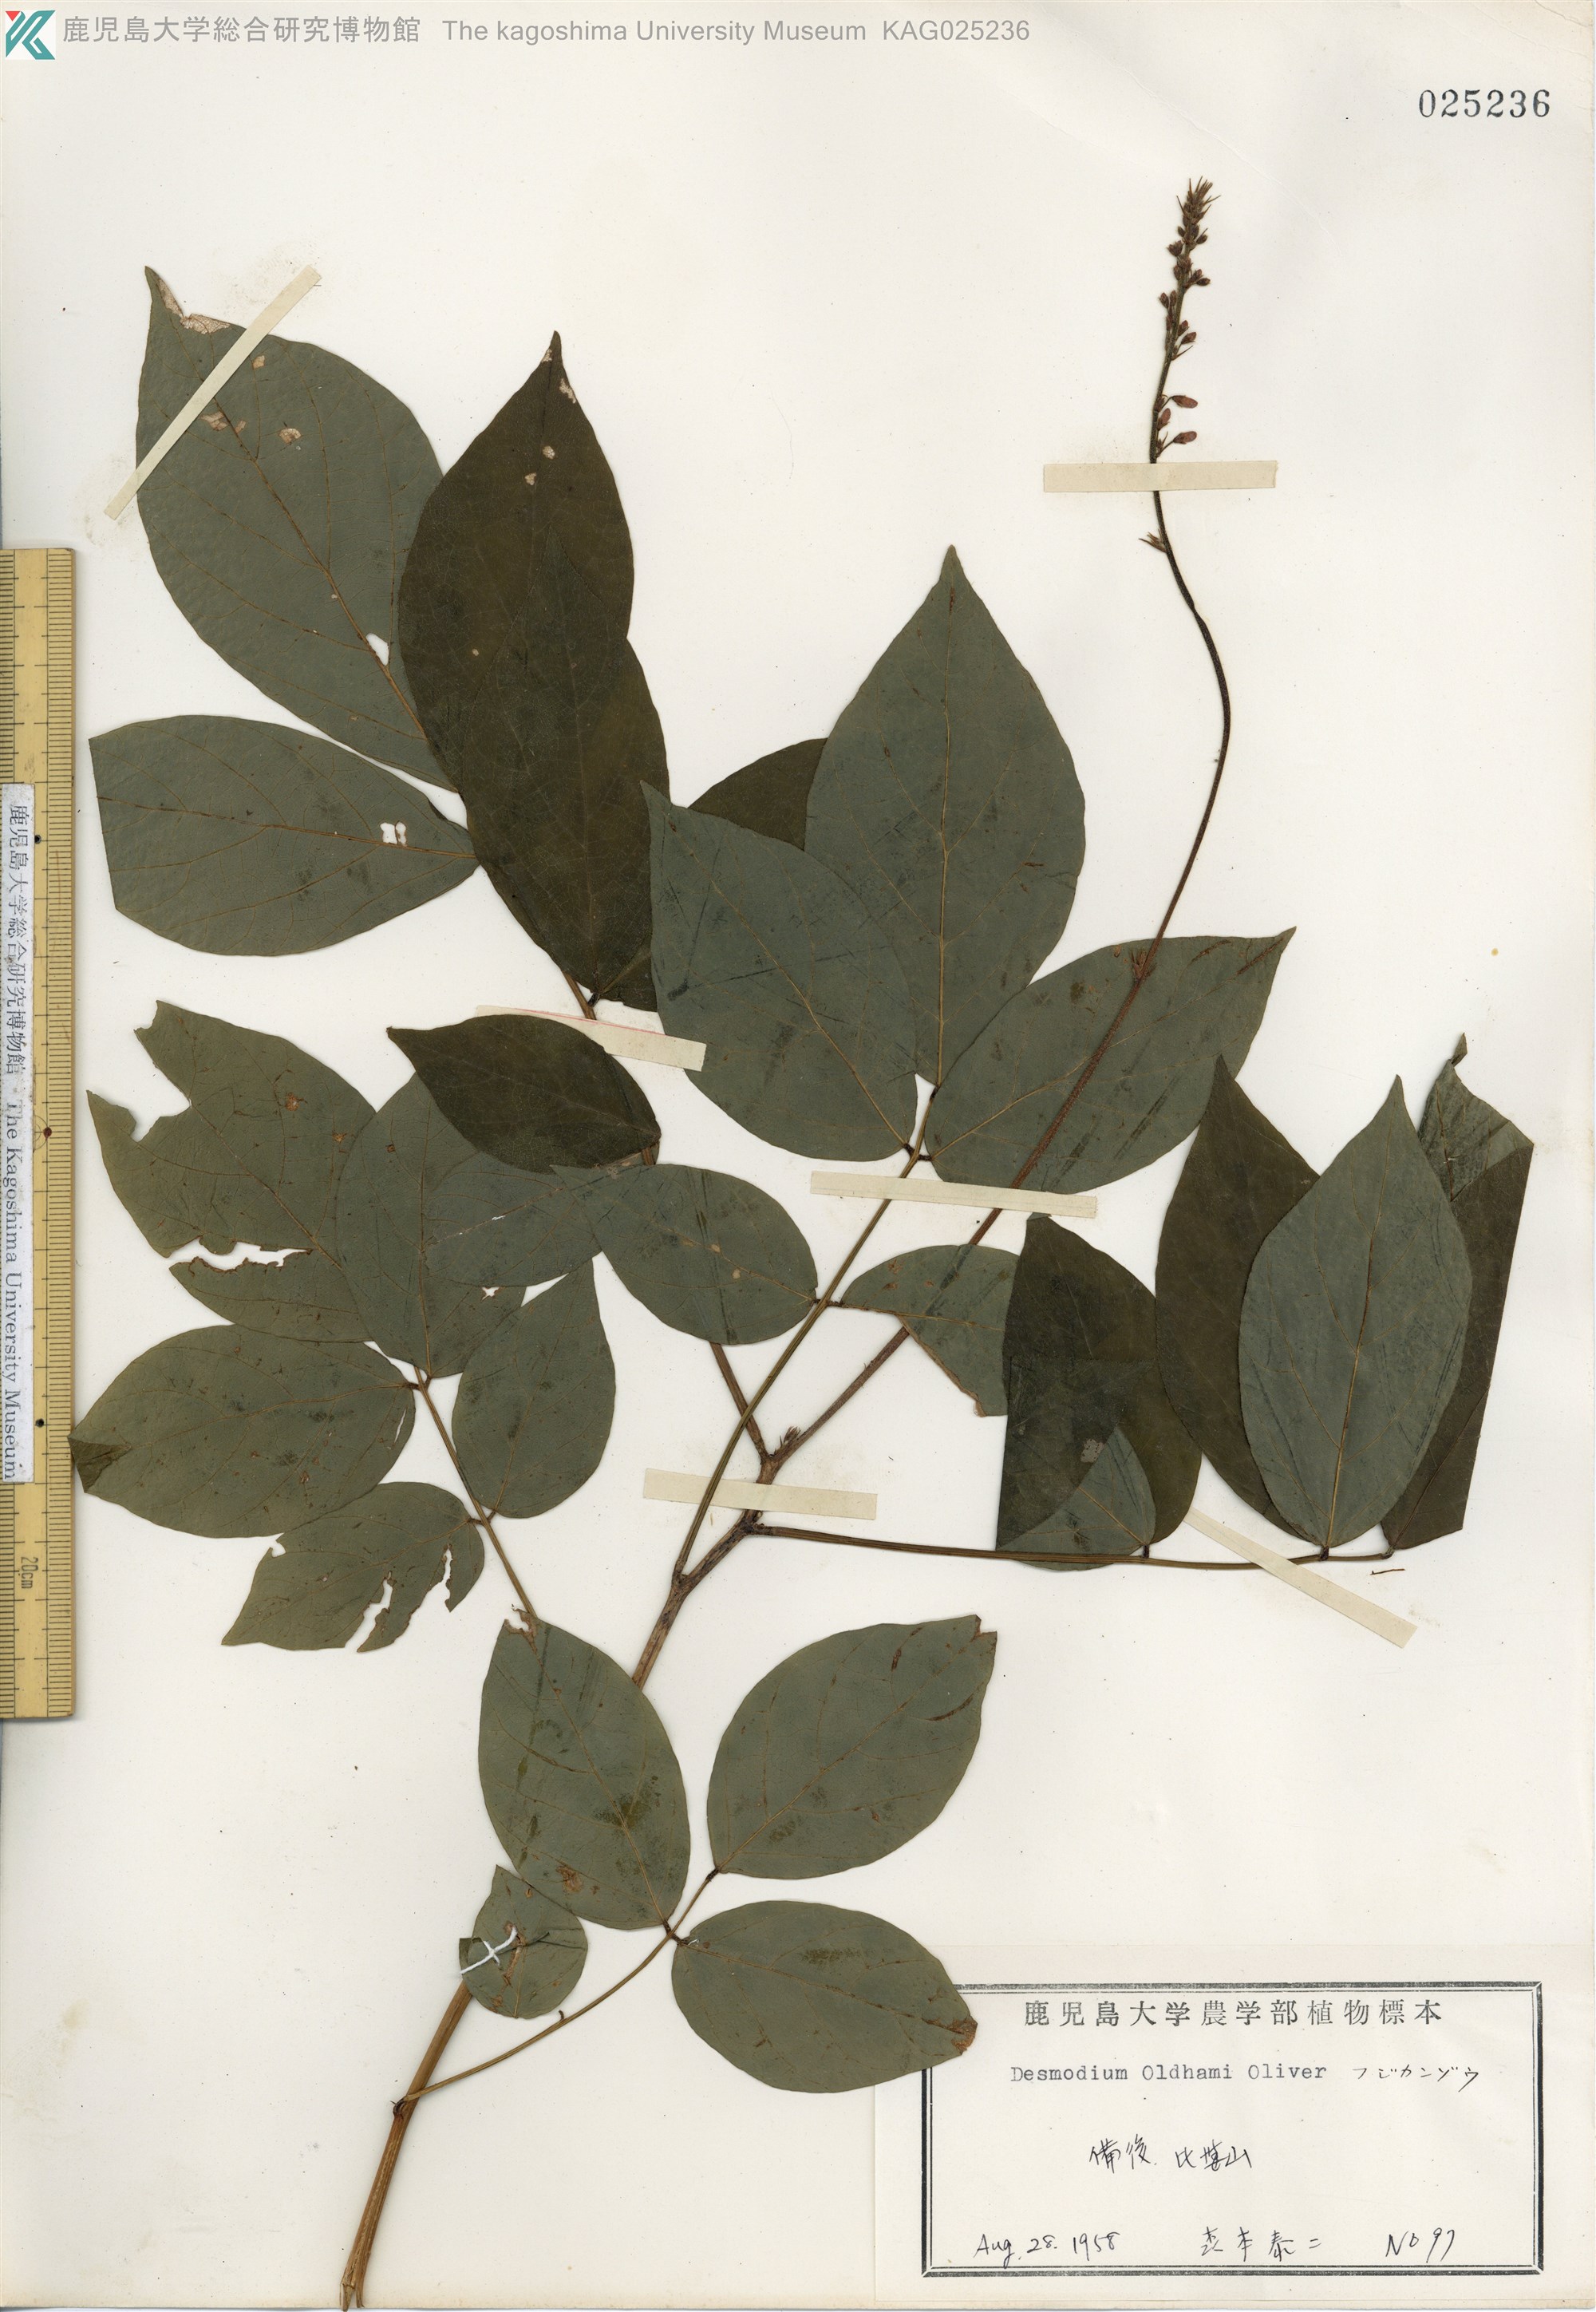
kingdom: Plantae
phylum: Tracheophyta
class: Magnoliopsida
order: Fabales
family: Fabaceae
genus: Hylodesmum
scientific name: Hylodesmum oldhamii
